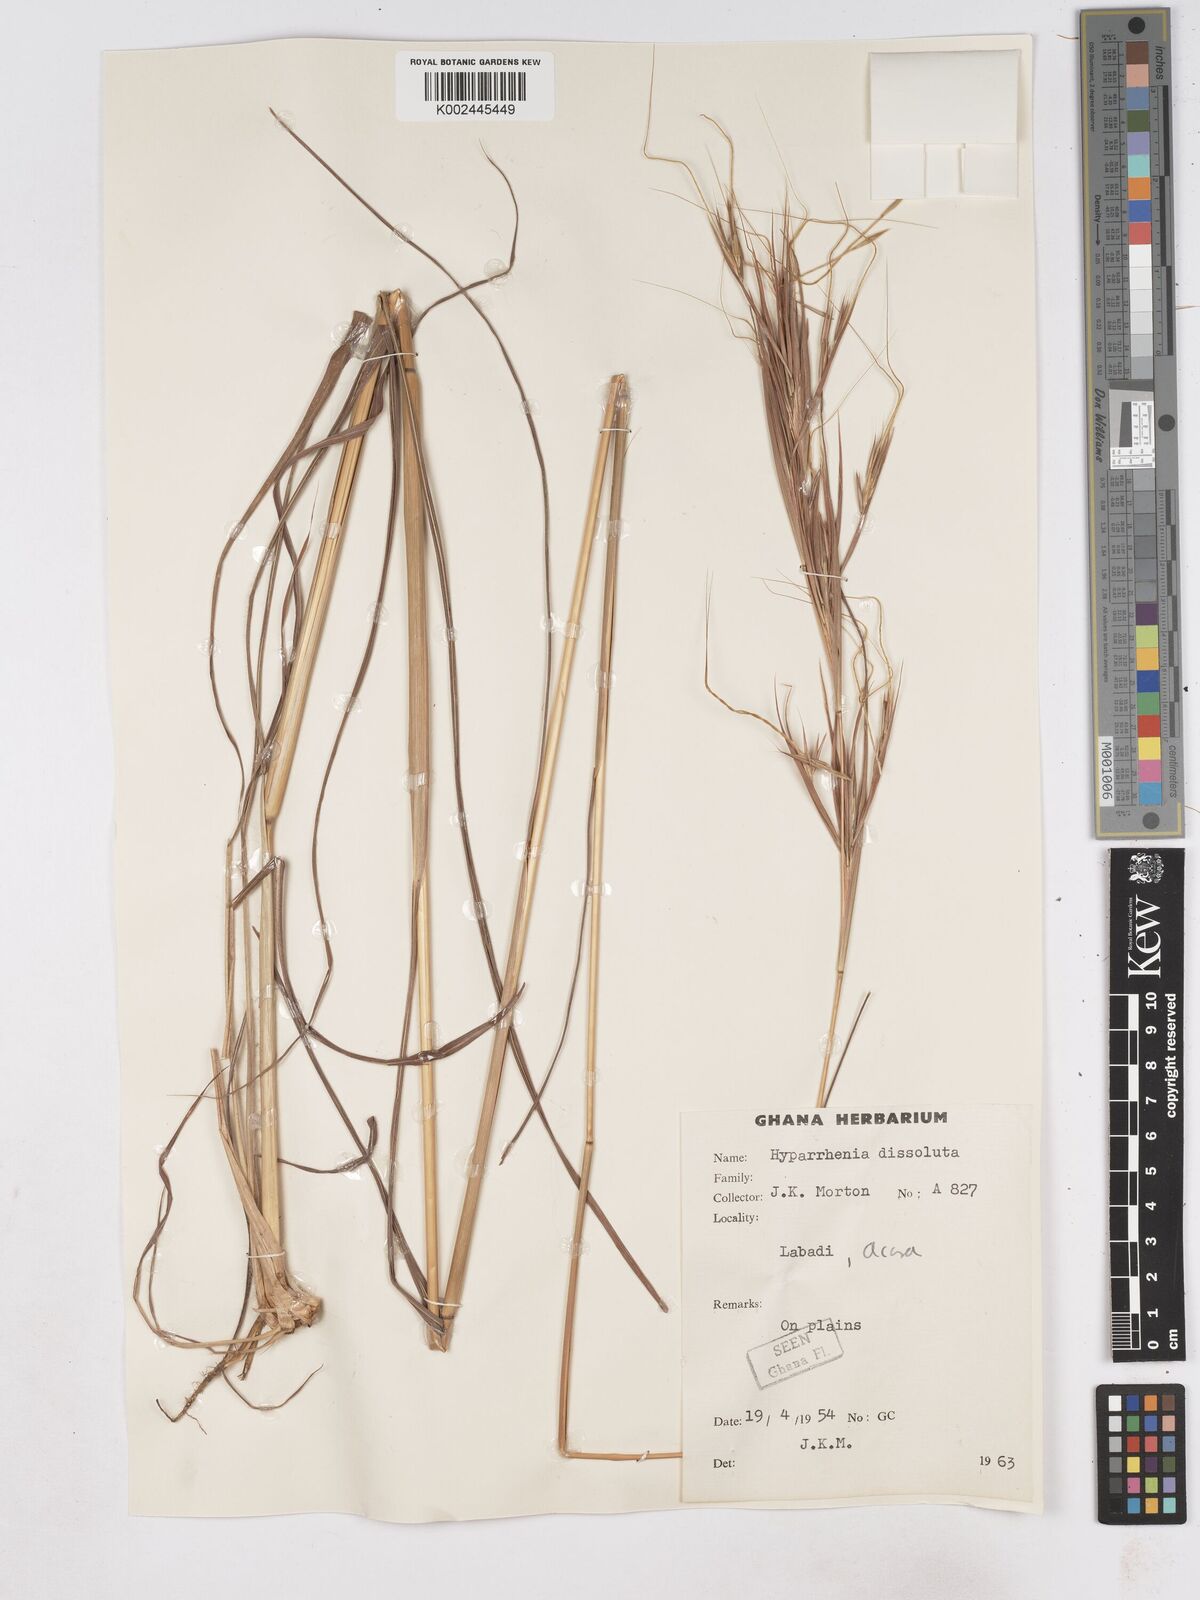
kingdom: Plantae
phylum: Tracheophyta
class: Liliopsida
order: Poales
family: Poaceae
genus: Hyperthelia
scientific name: Hyperthelia dissoluta
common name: Yellow thatching grass
